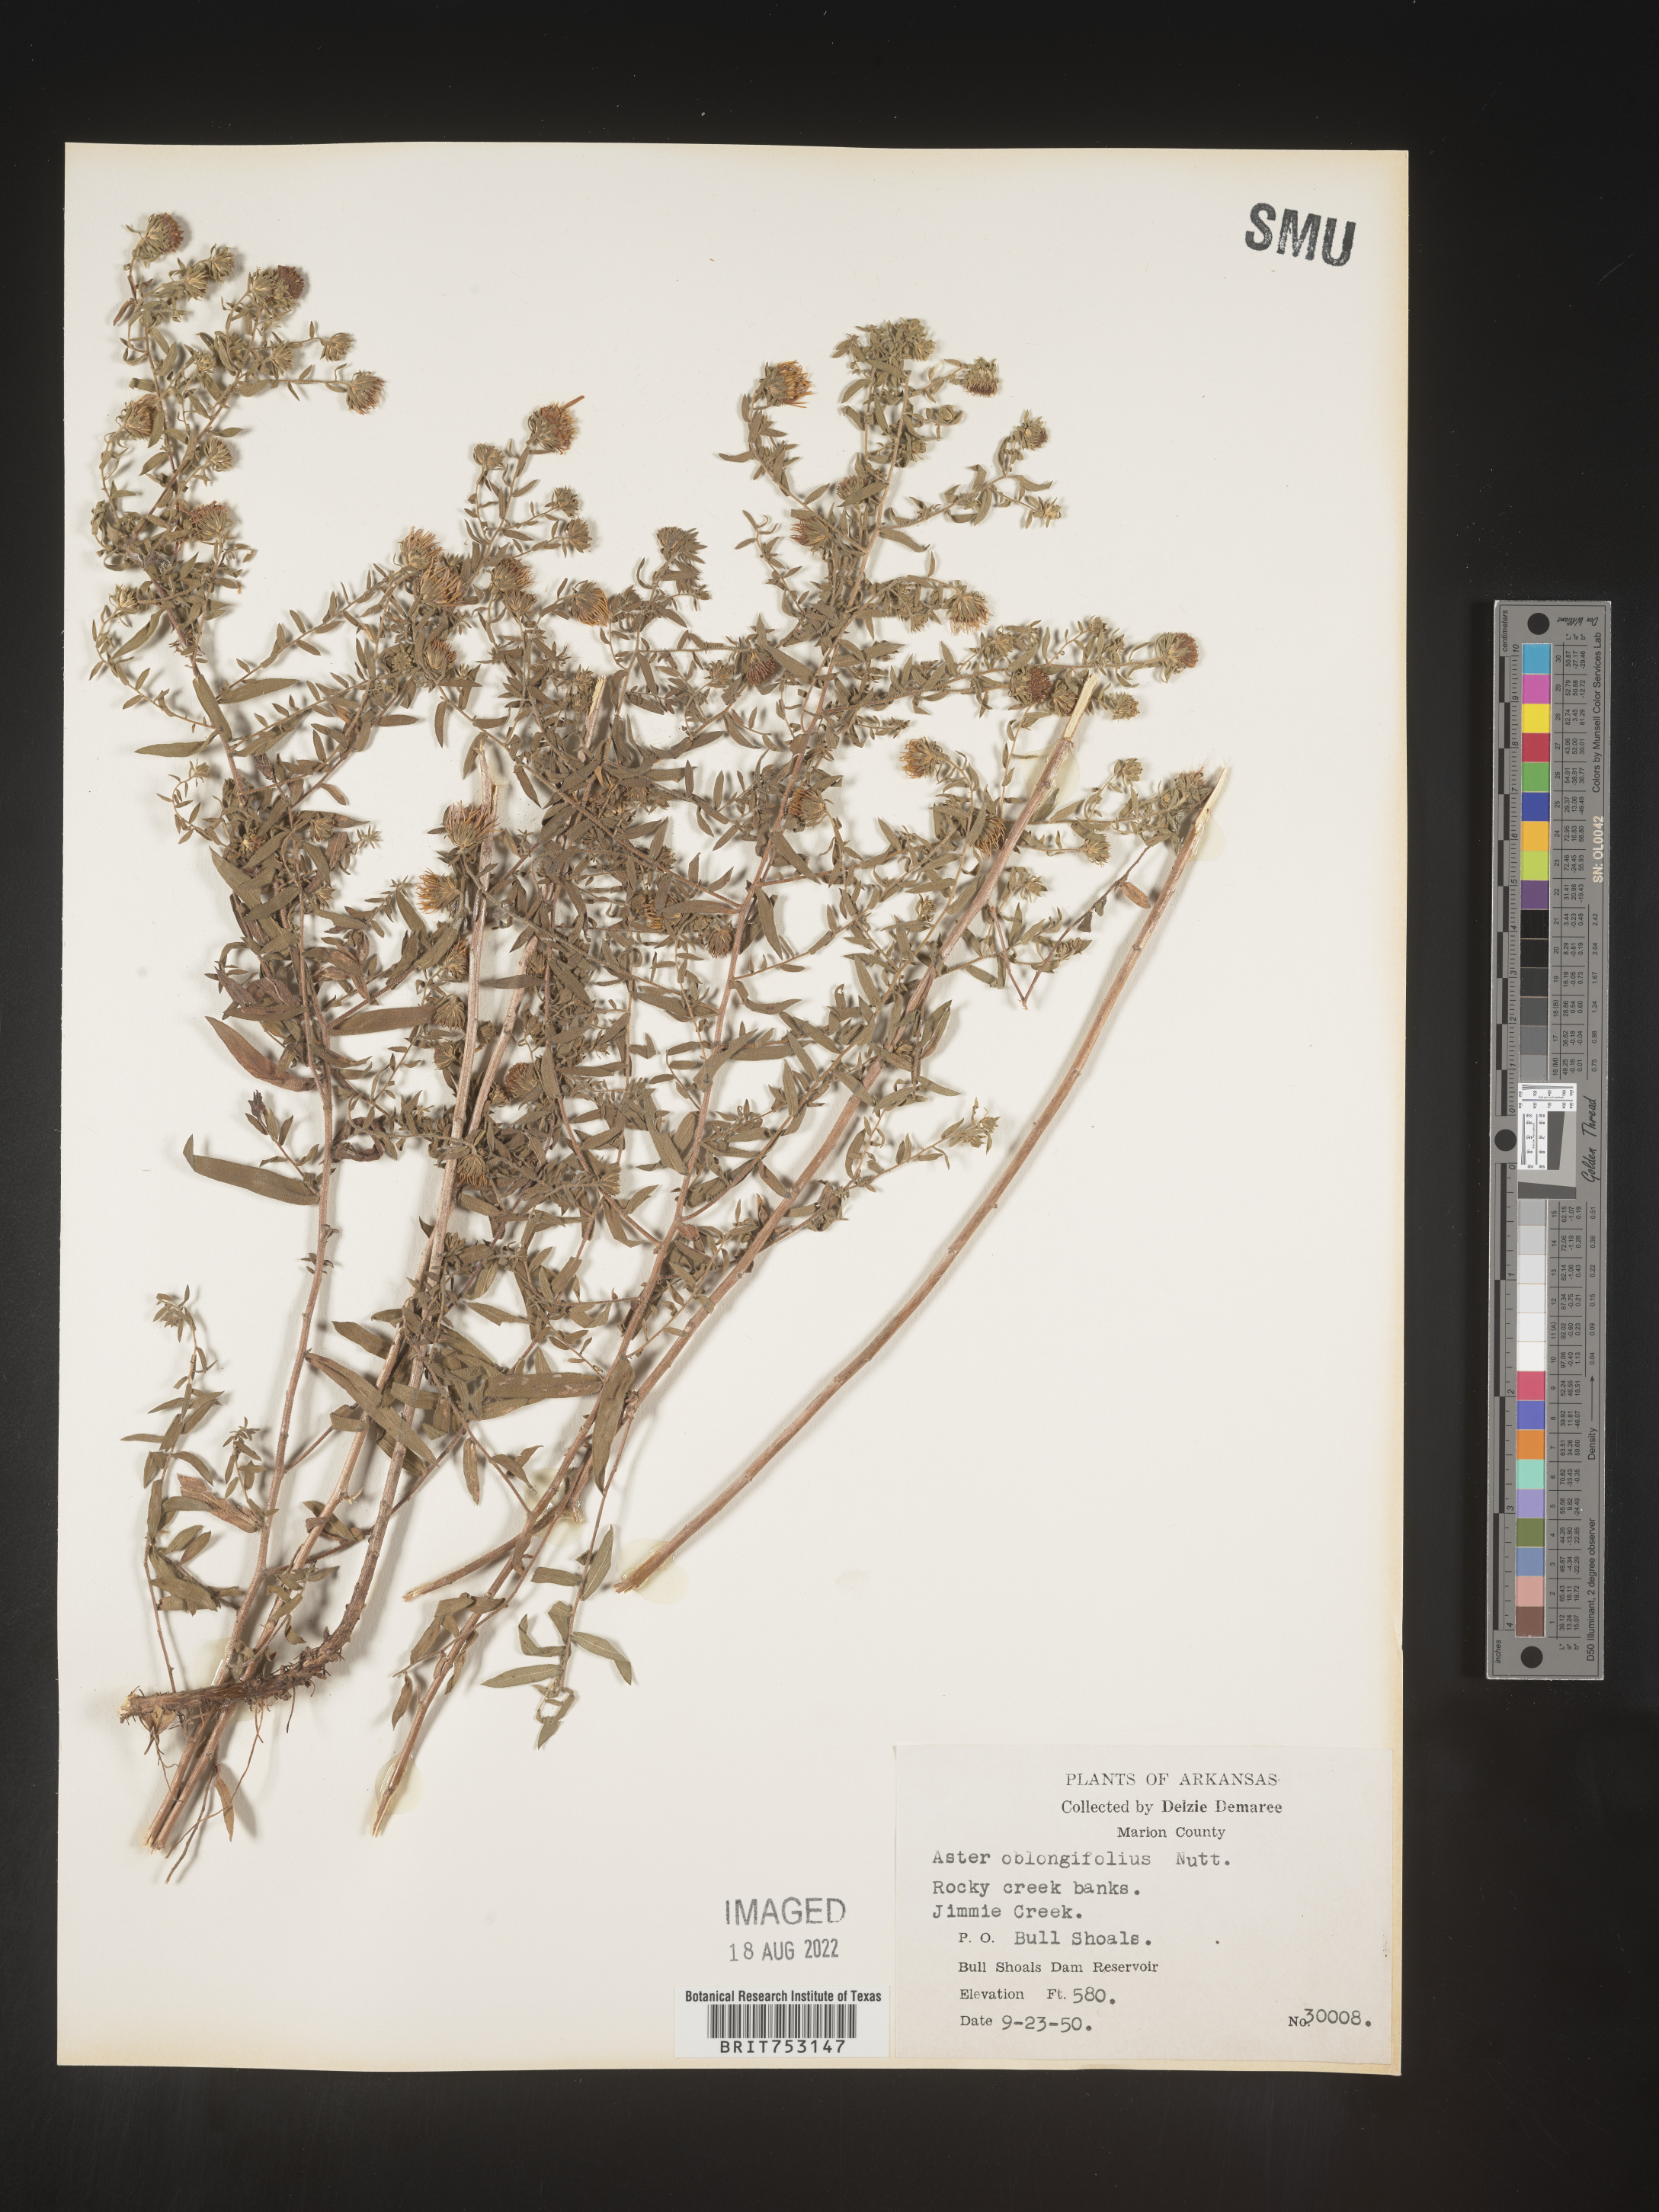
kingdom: Plantae
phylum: Tracheophyta
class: Magnoliopsida
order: Asterales
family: Asteraceae
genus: Symphyotrichum
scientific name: Symphyotrichum oblongifolium
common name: Aromatic aster
